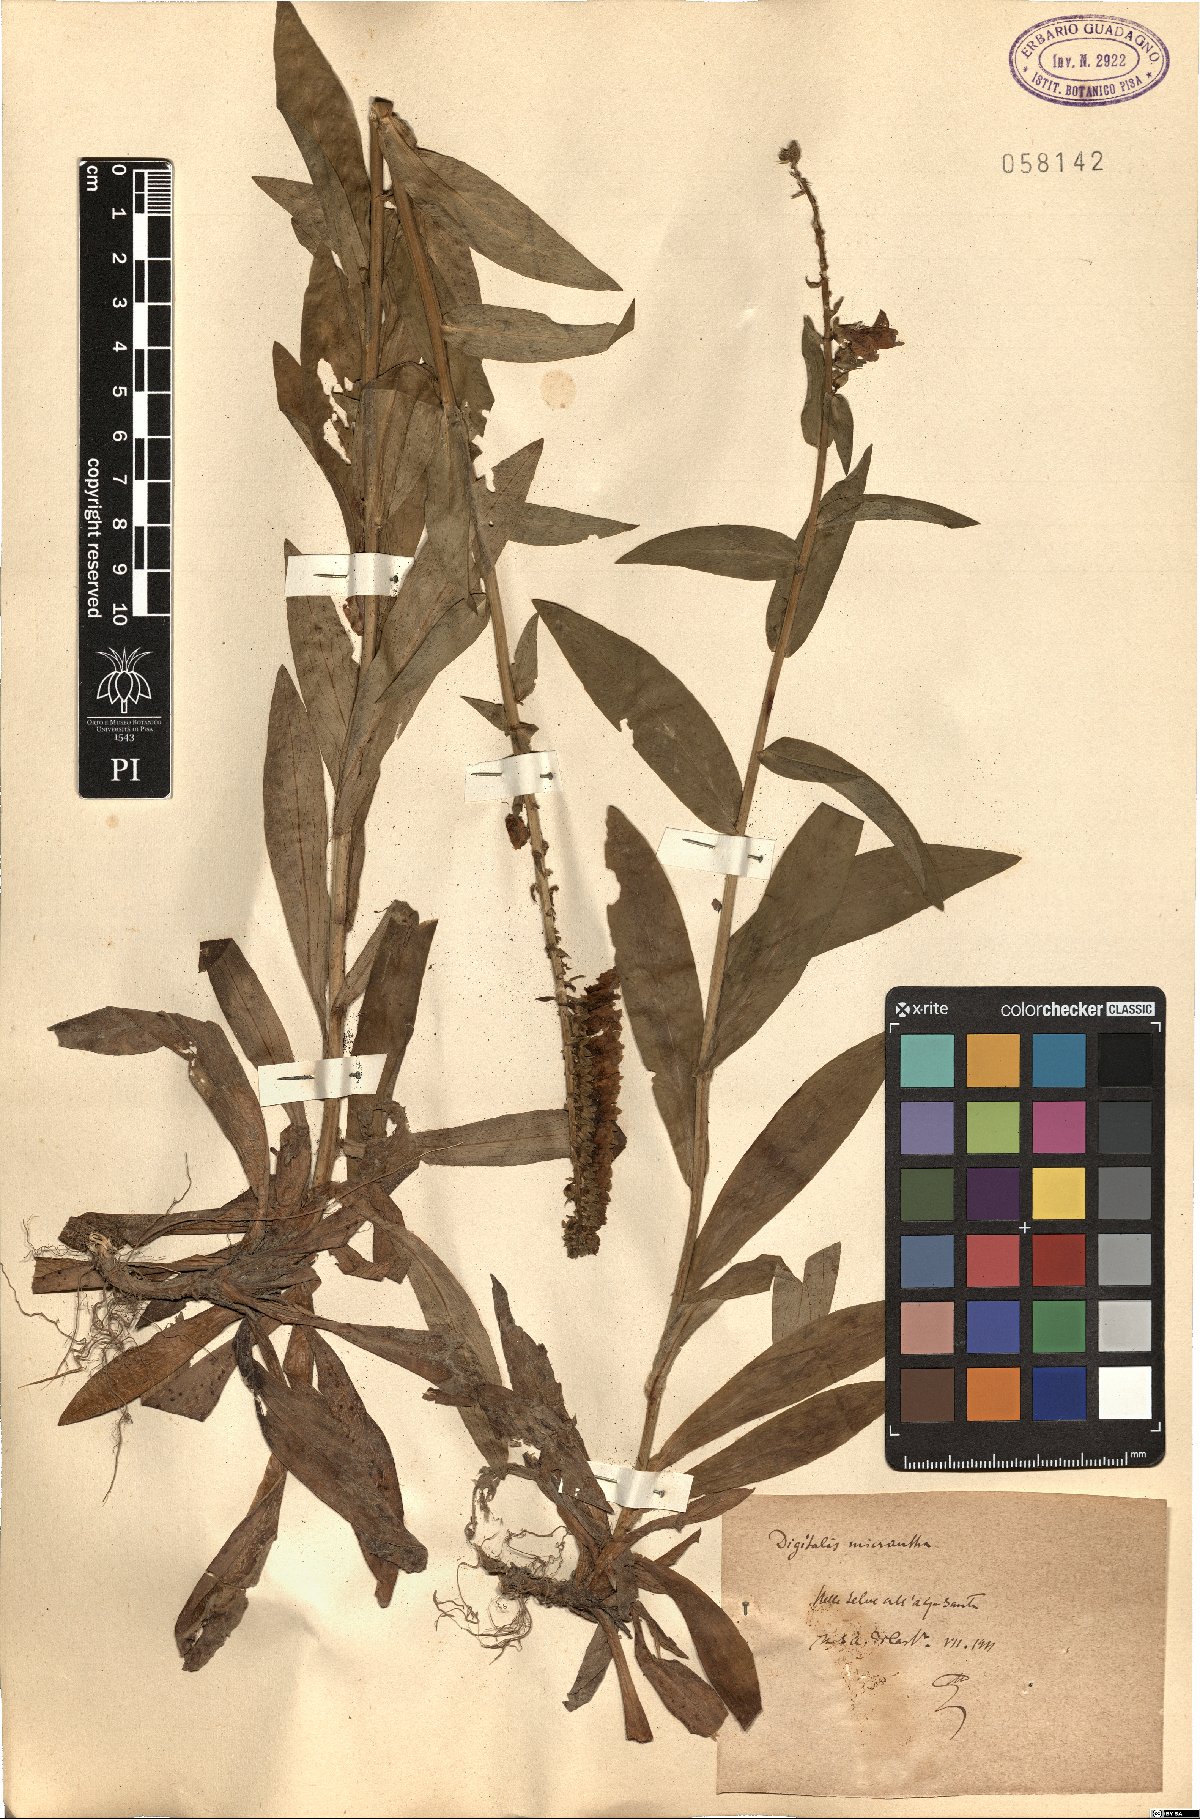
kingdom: Plantae
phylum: Tracheophyta
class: Magnoliopsida
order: Lamiales
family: Plantaginaceae
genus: Digitalis
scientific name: Digitalis lutea
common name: Straw foxglove
